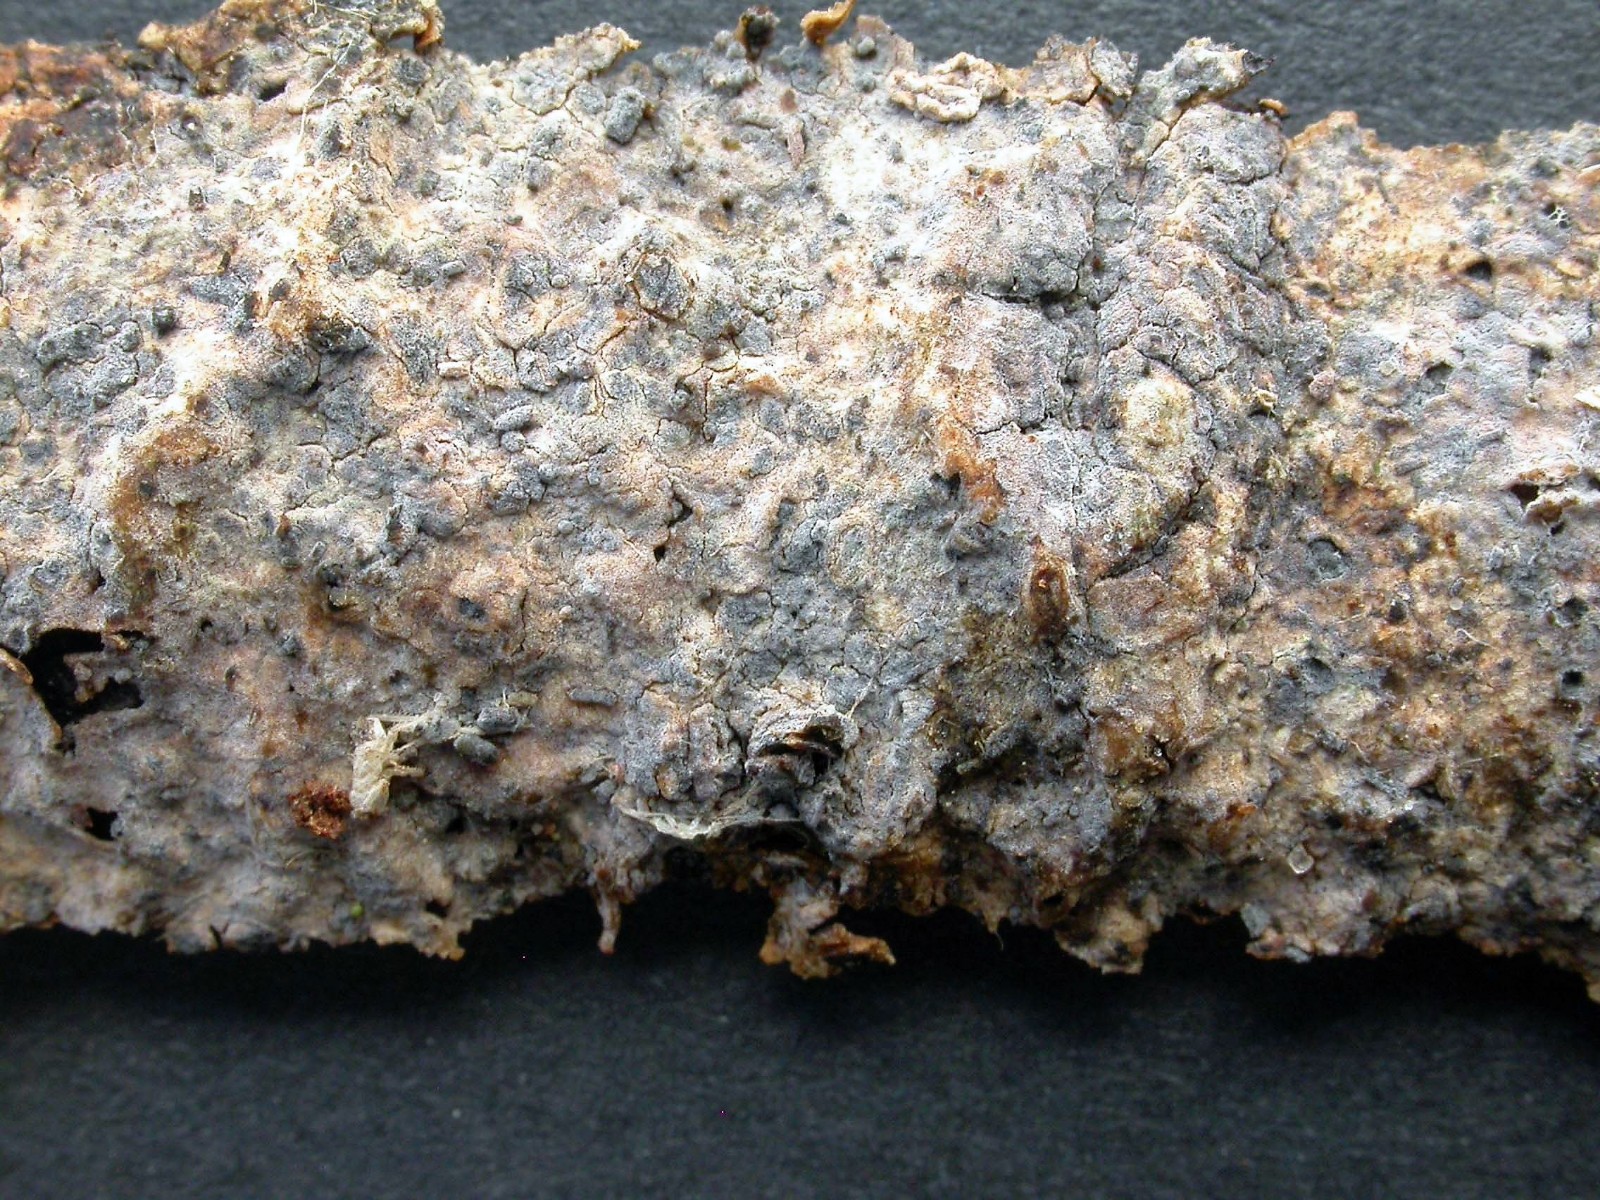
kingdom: Fungi
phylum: Basidiomycota
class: Agaricomycetes
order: Cantharellales
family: Hydnaceae
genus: Sistotrema
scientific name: Sistotrema porulosum
